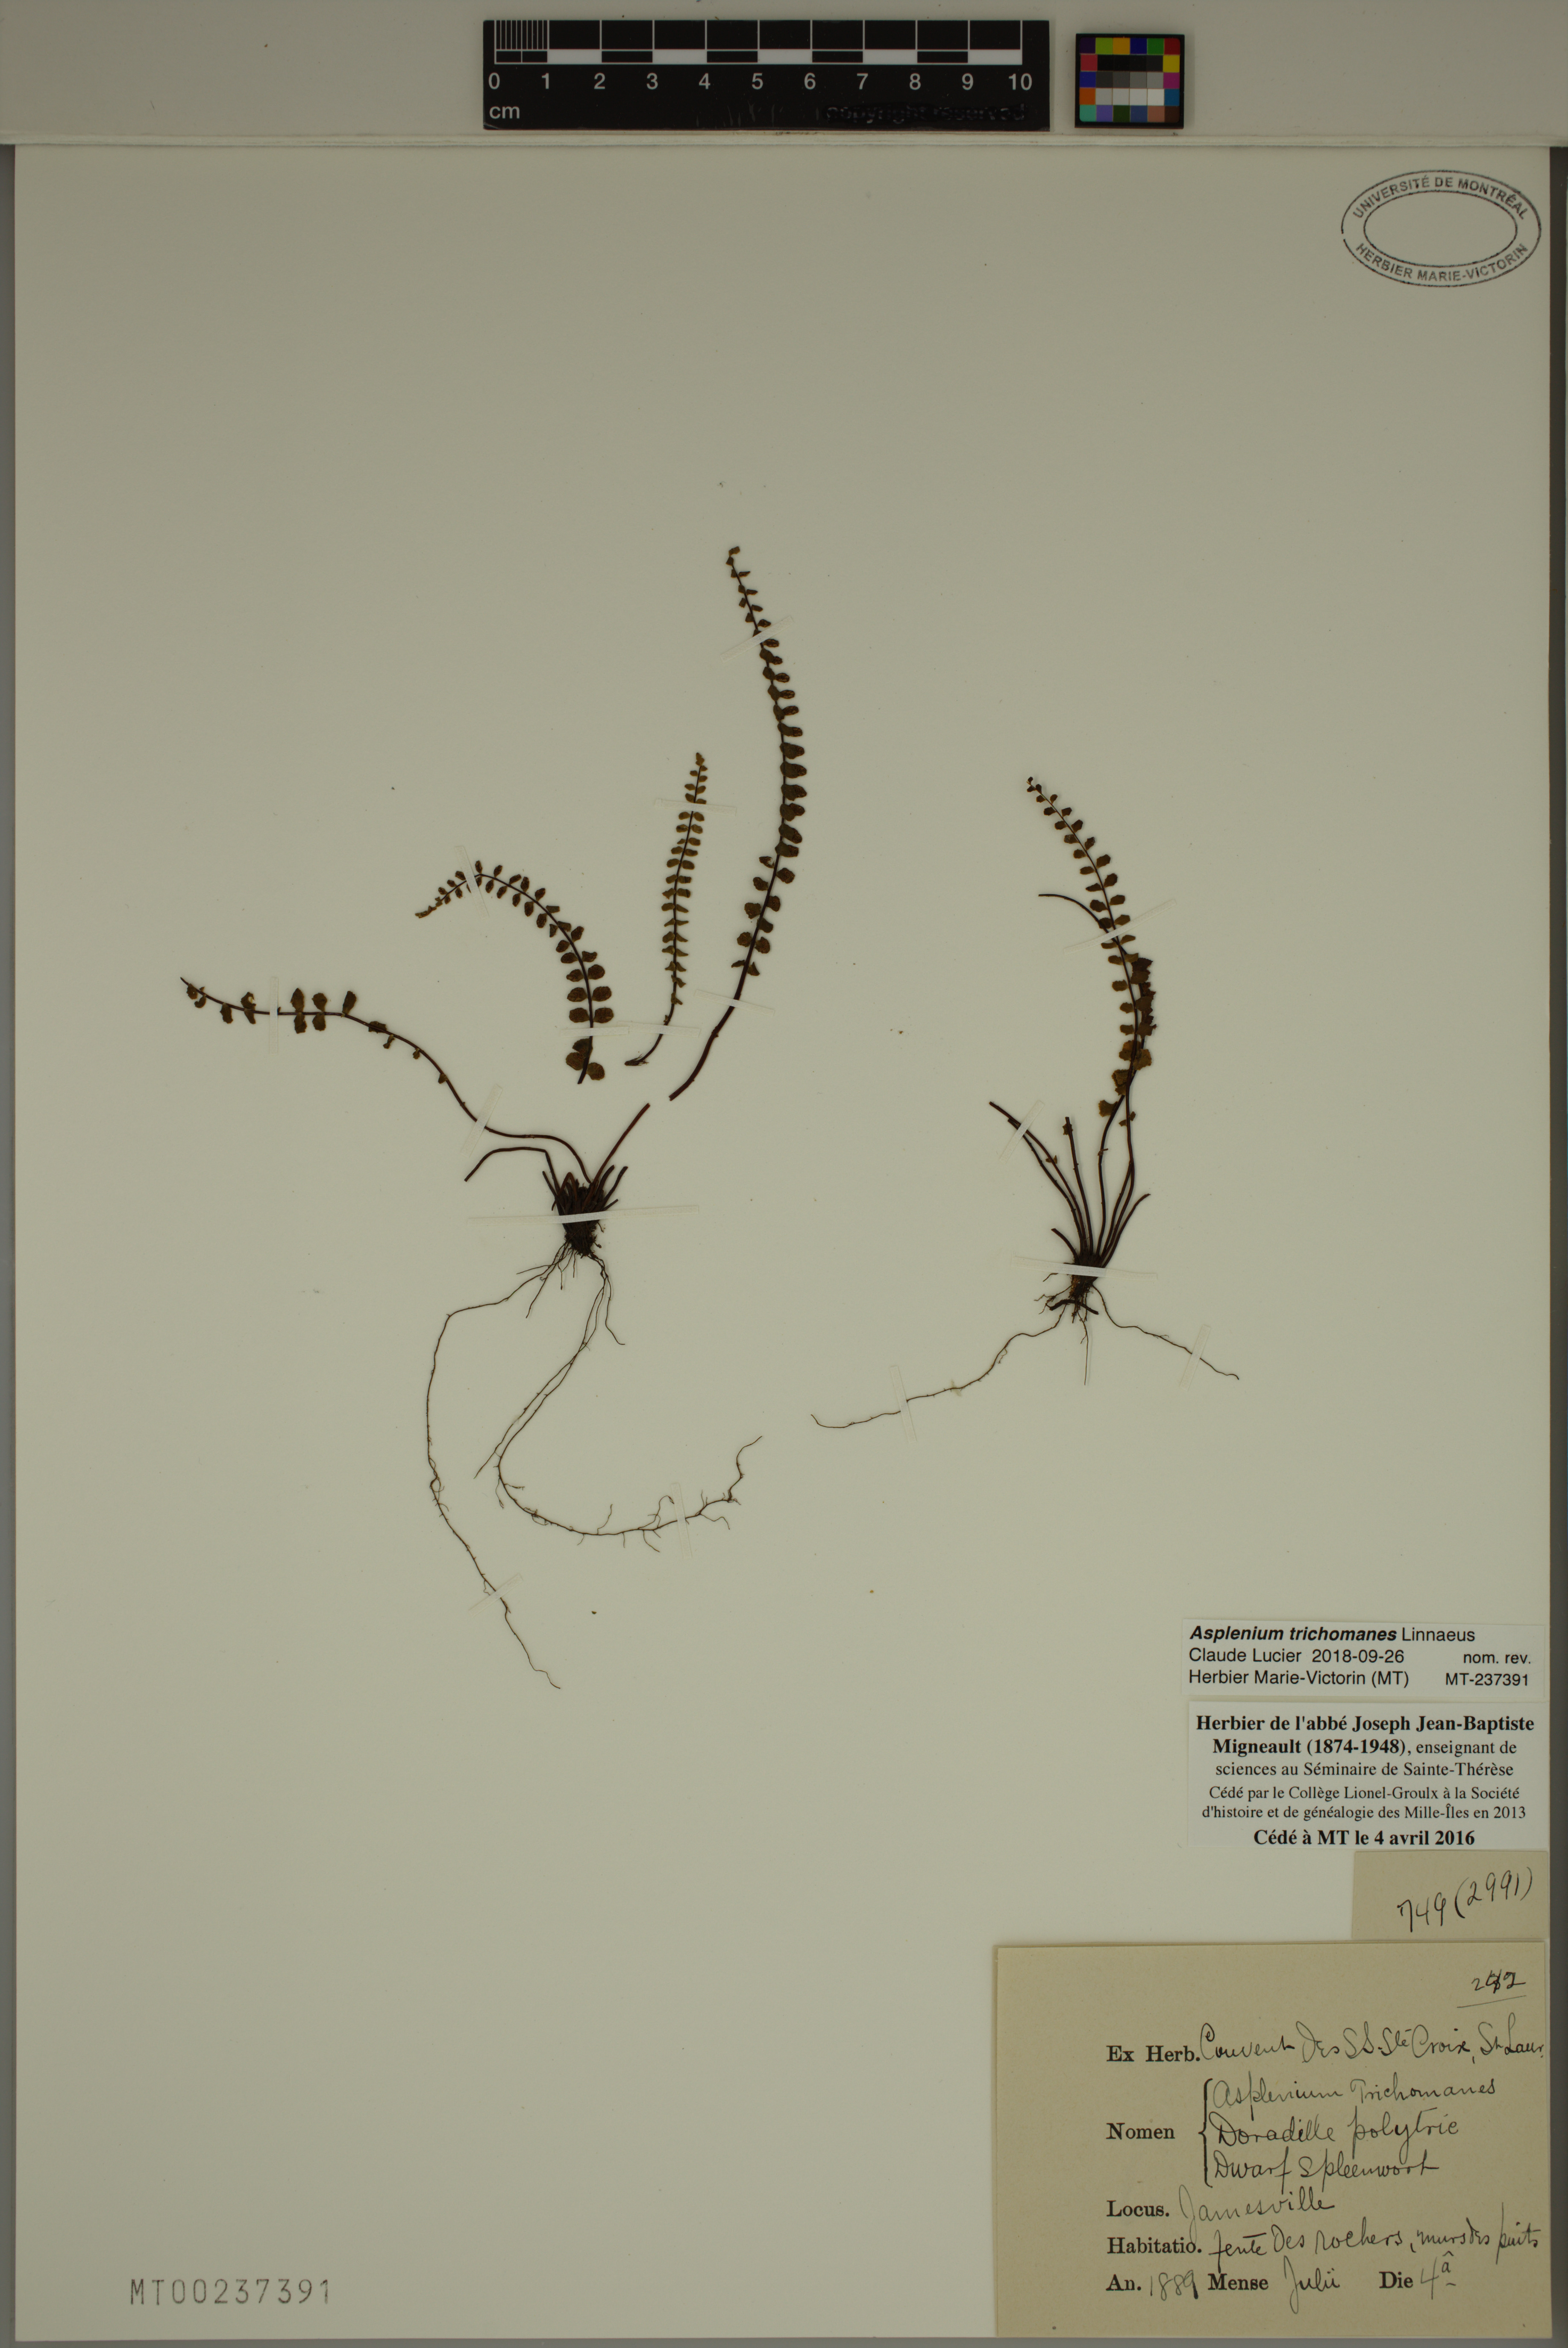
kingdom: Plantae
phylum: Tracheophyta
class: Polypodiopsida
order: Polypodiales
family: Aspleniaceae
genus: Asplenium
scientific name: Asplenium trichomanes
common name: Maidenhair spleenwort
